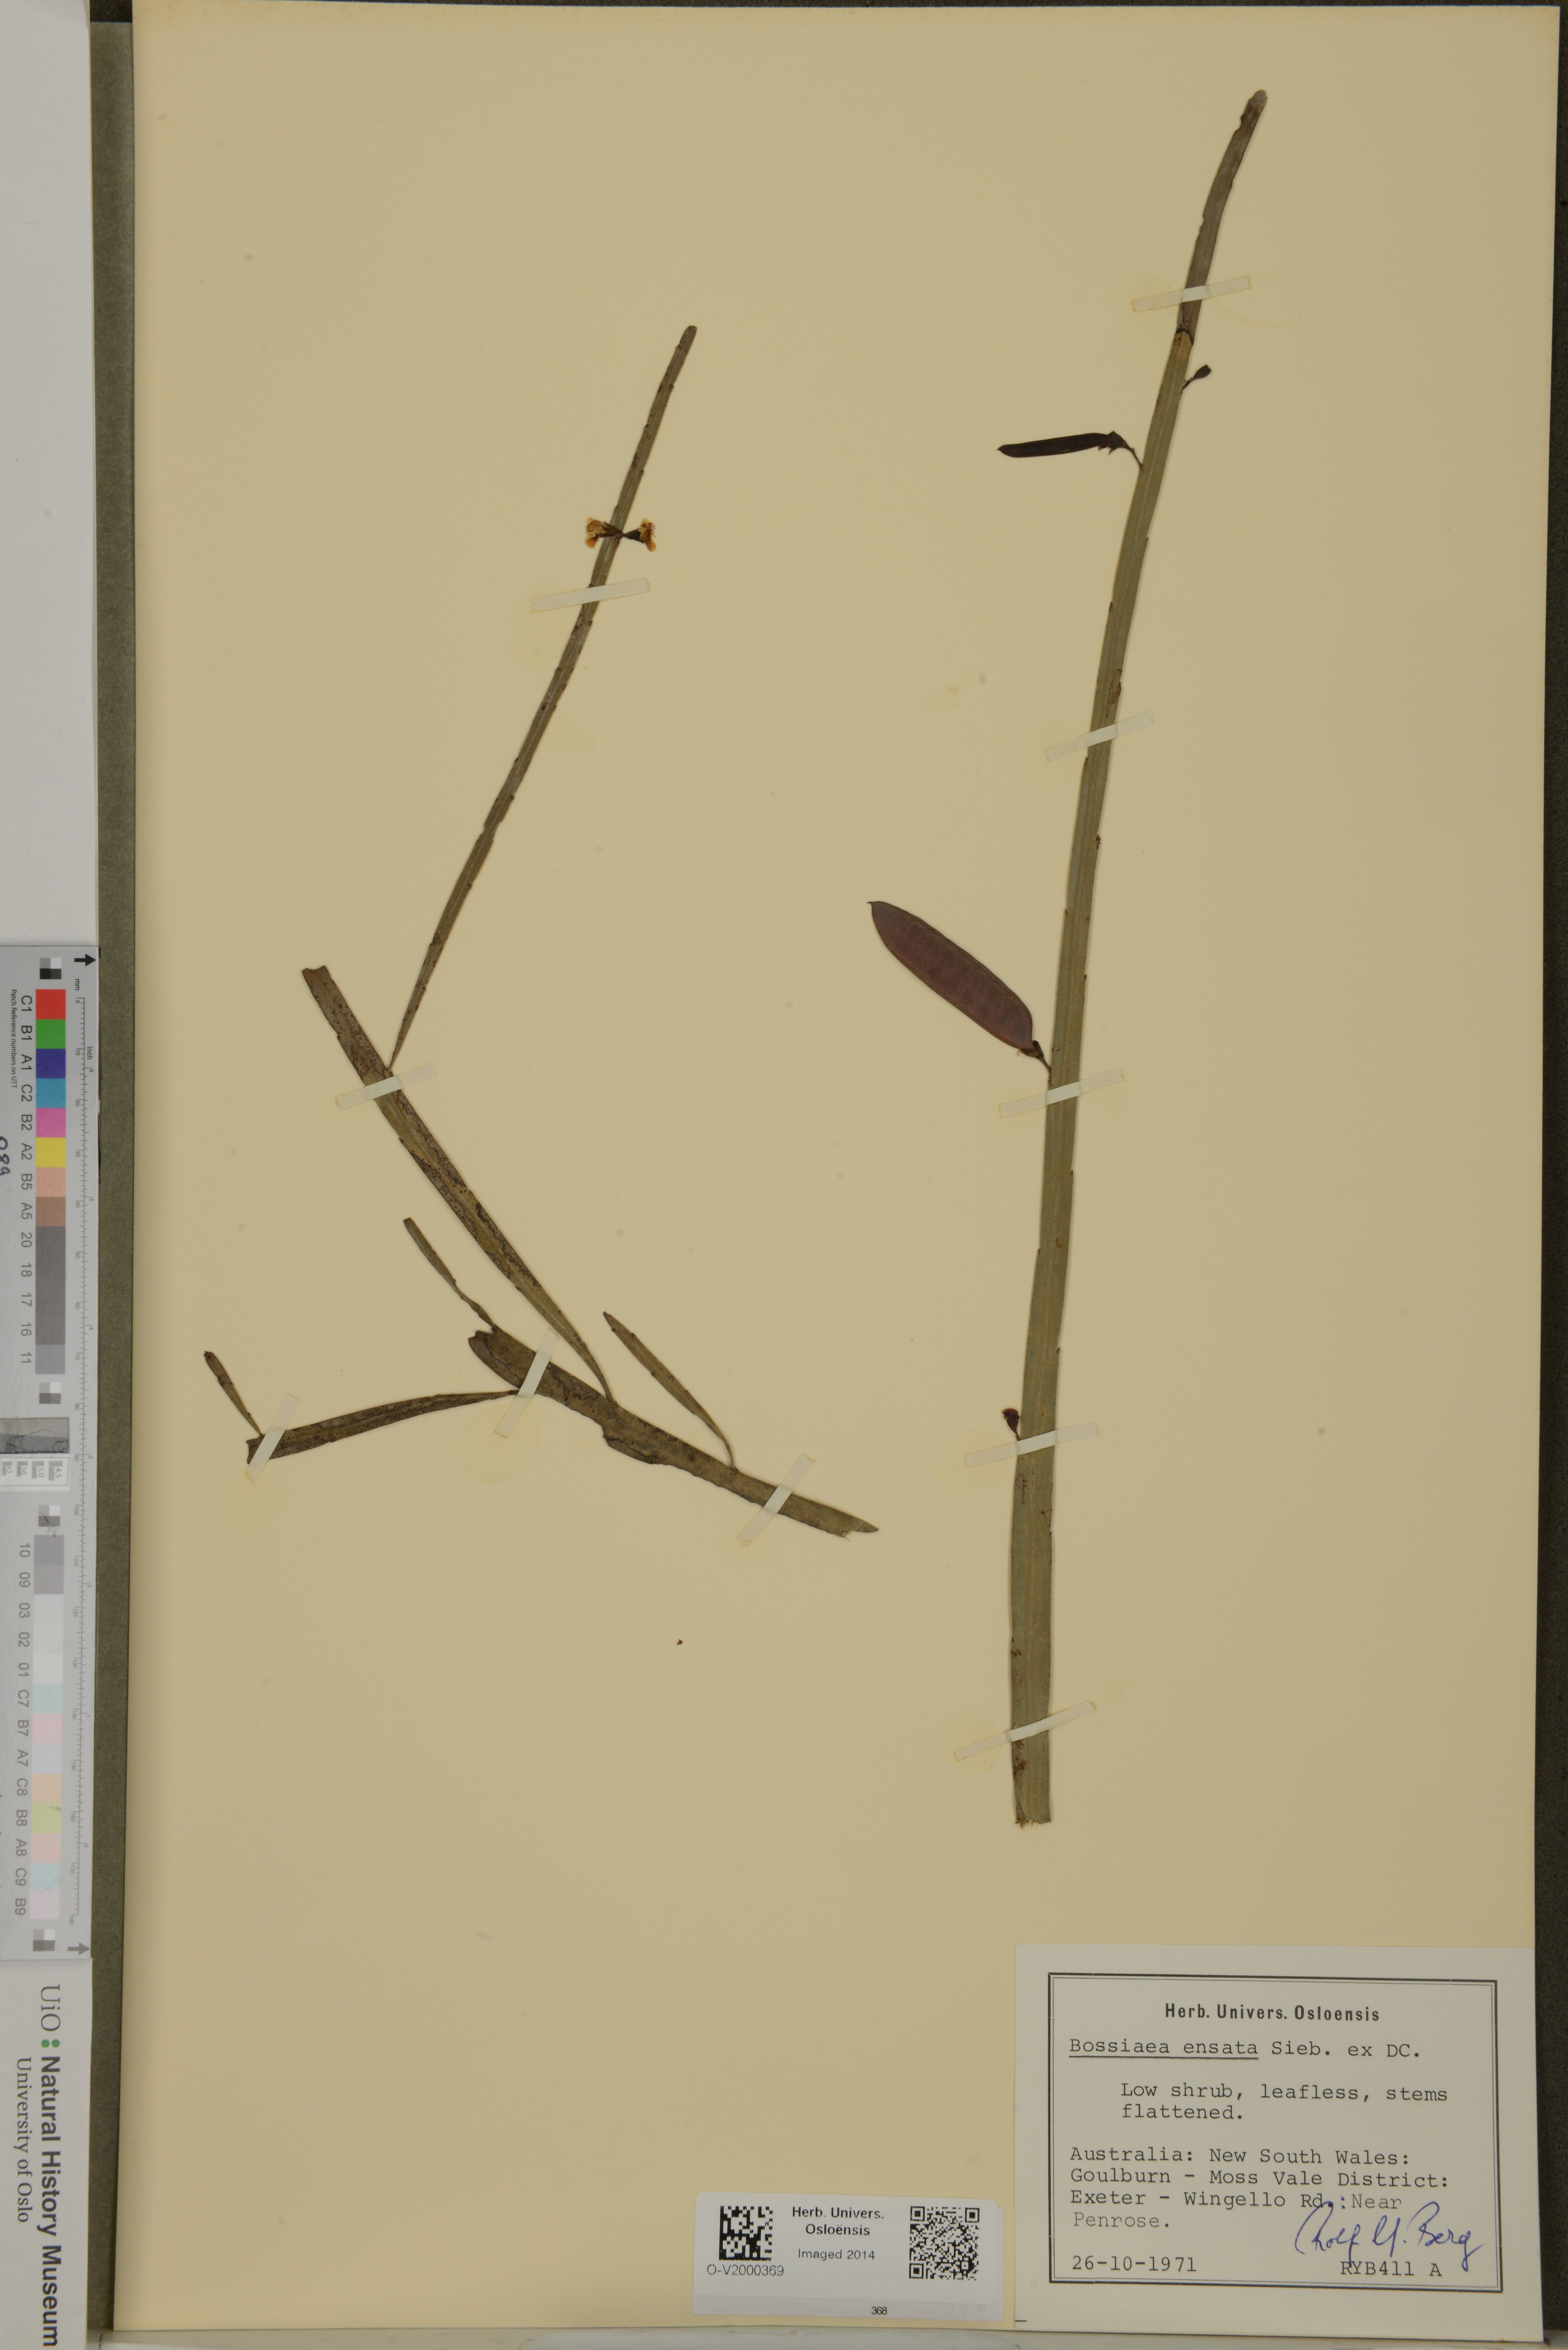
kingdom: Plantae
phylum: Tracheophyta
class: Magnoliopsida
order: Fabales
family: Fabaceae
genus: Bossiaea
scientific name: Bossiaea ensata
